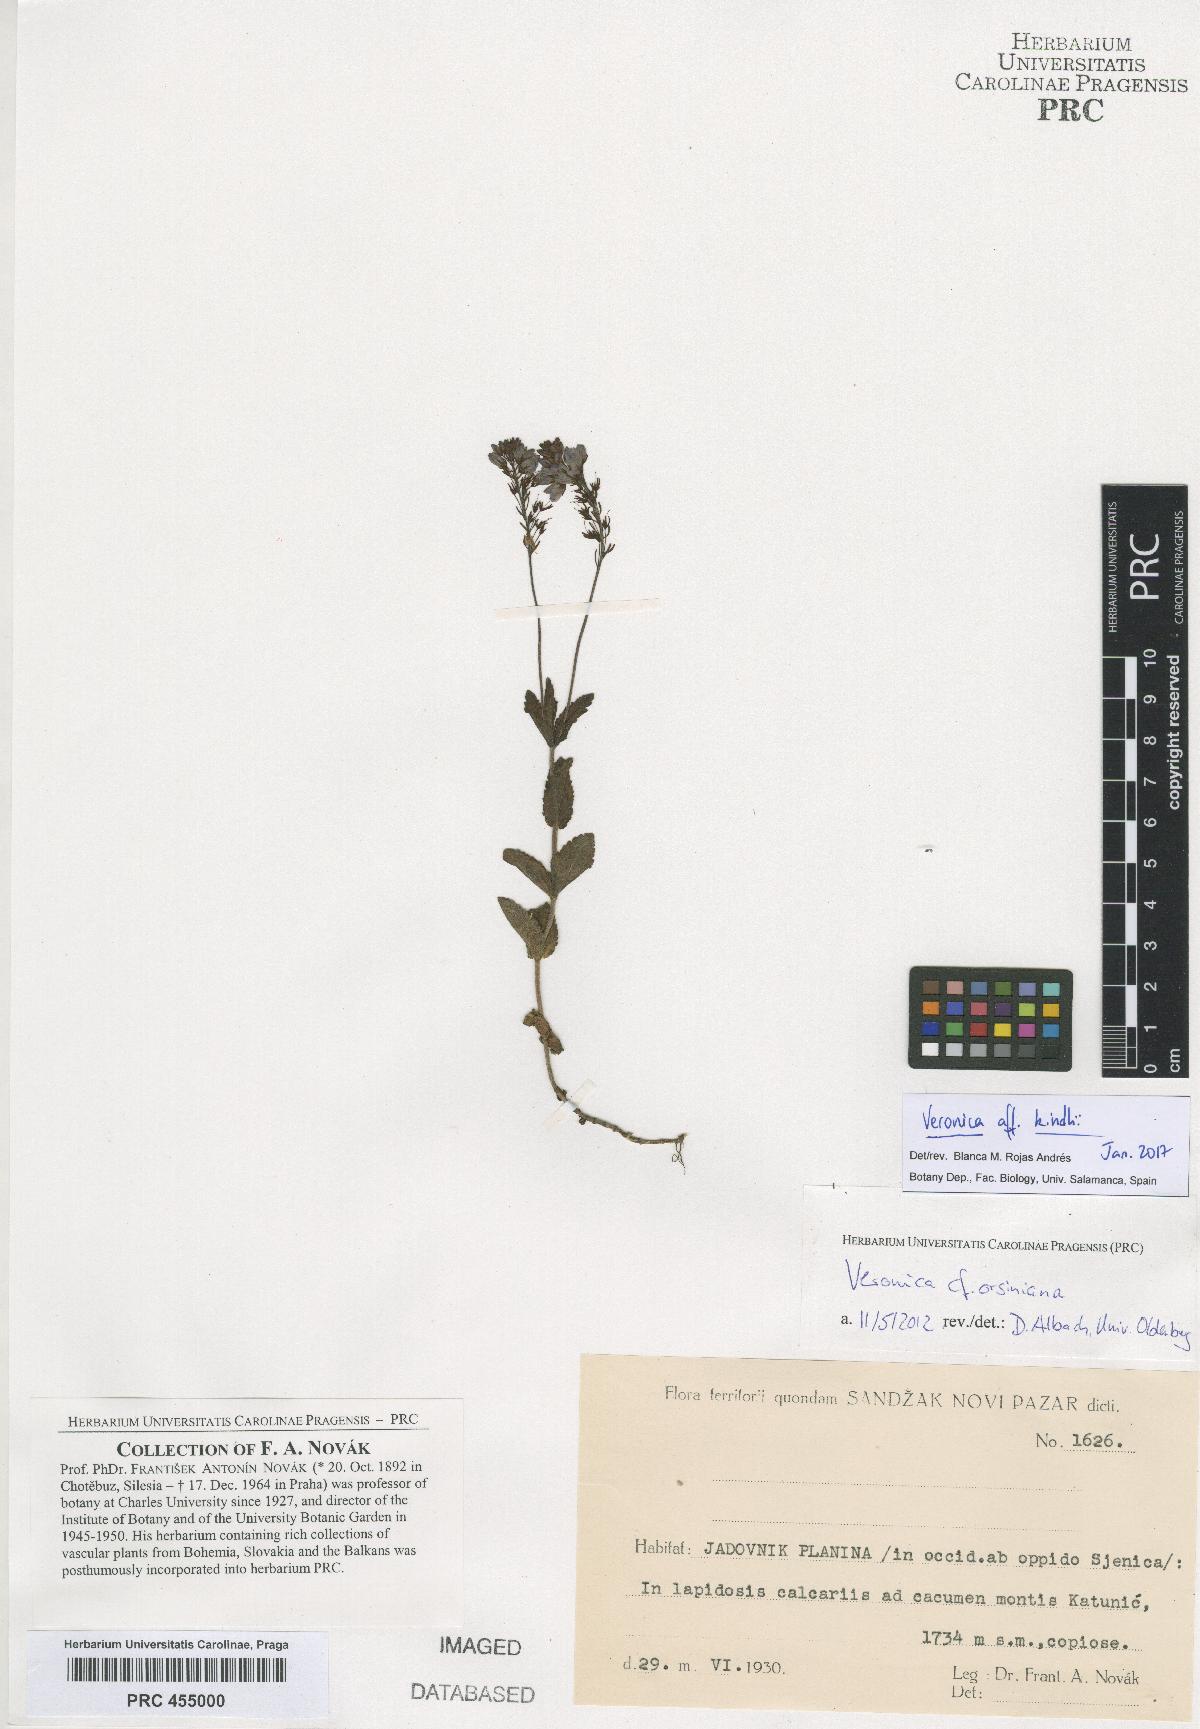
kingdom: Plantae
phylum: Tracheophyta
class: Magnoliopsida
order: Lamiales
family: Plantaginaceae
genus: Veronica
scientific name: Veronica orsiniana
